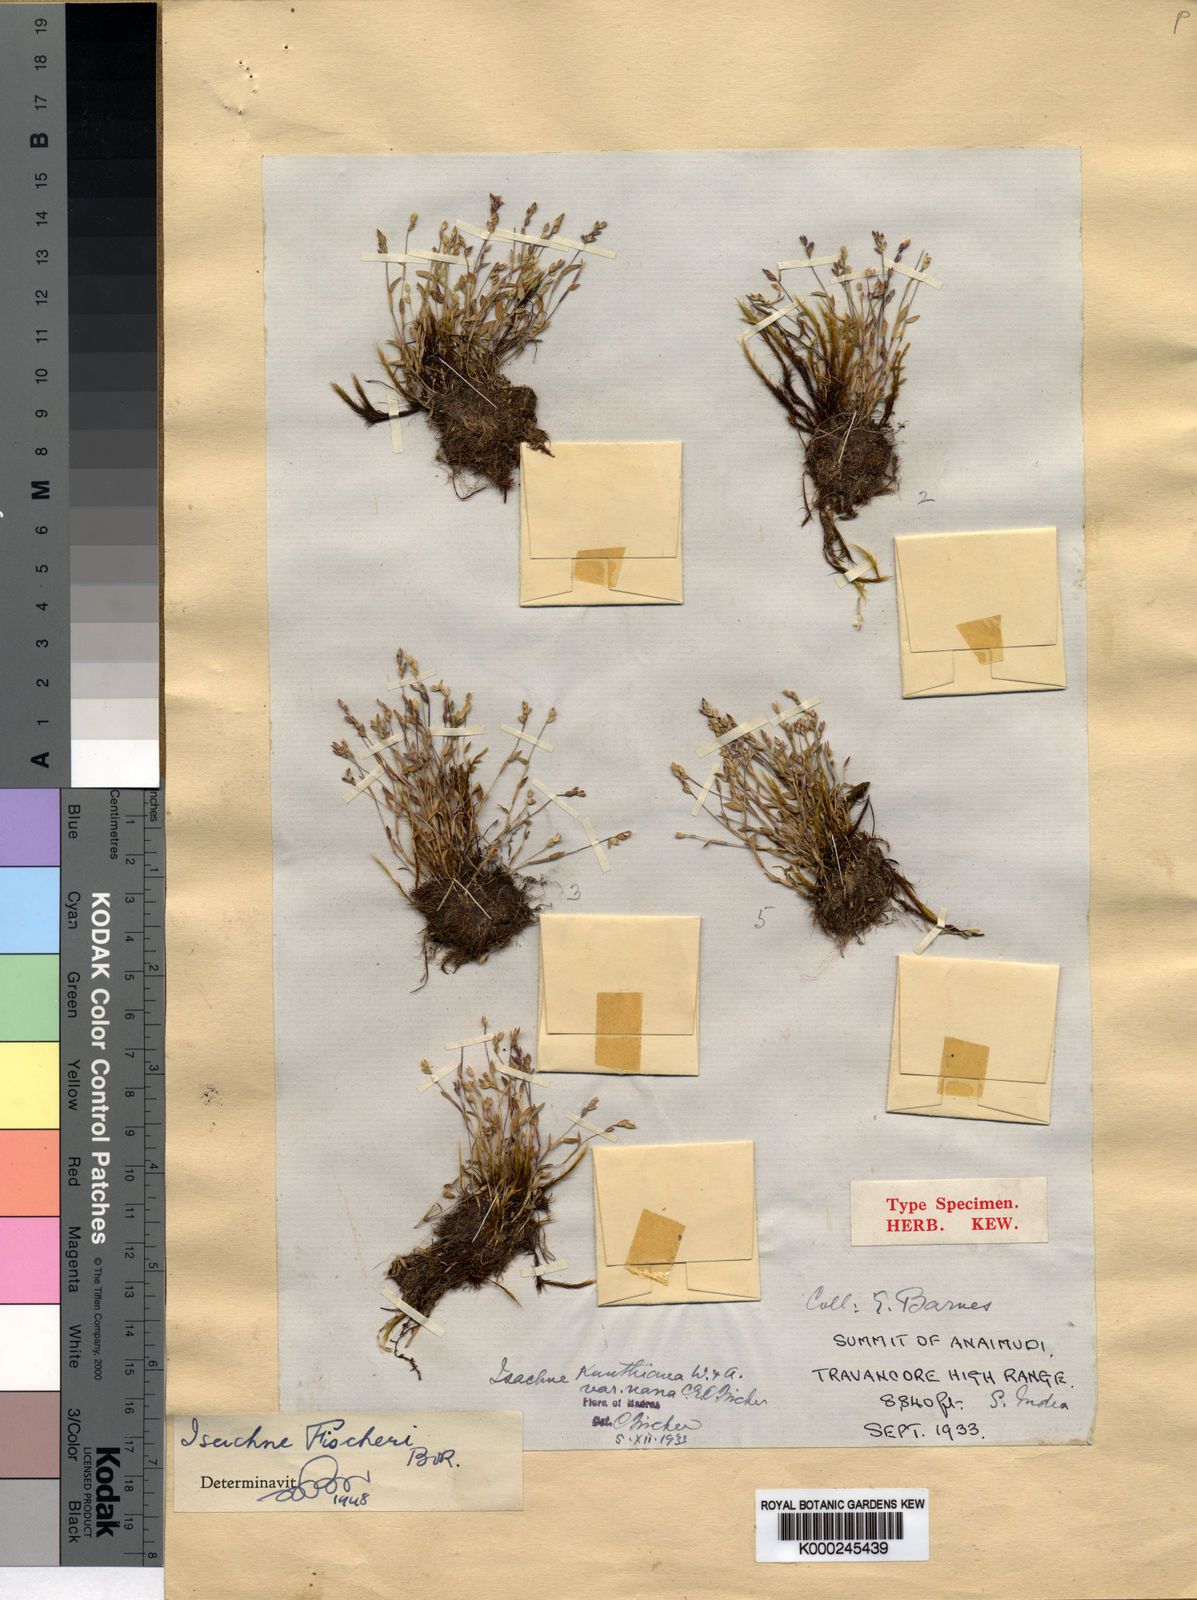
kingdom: Plantae
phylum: Tracheophyta
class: Liliopsida
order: Poales
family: Poaceae
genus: Isachne
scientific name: Isachne fischeri
